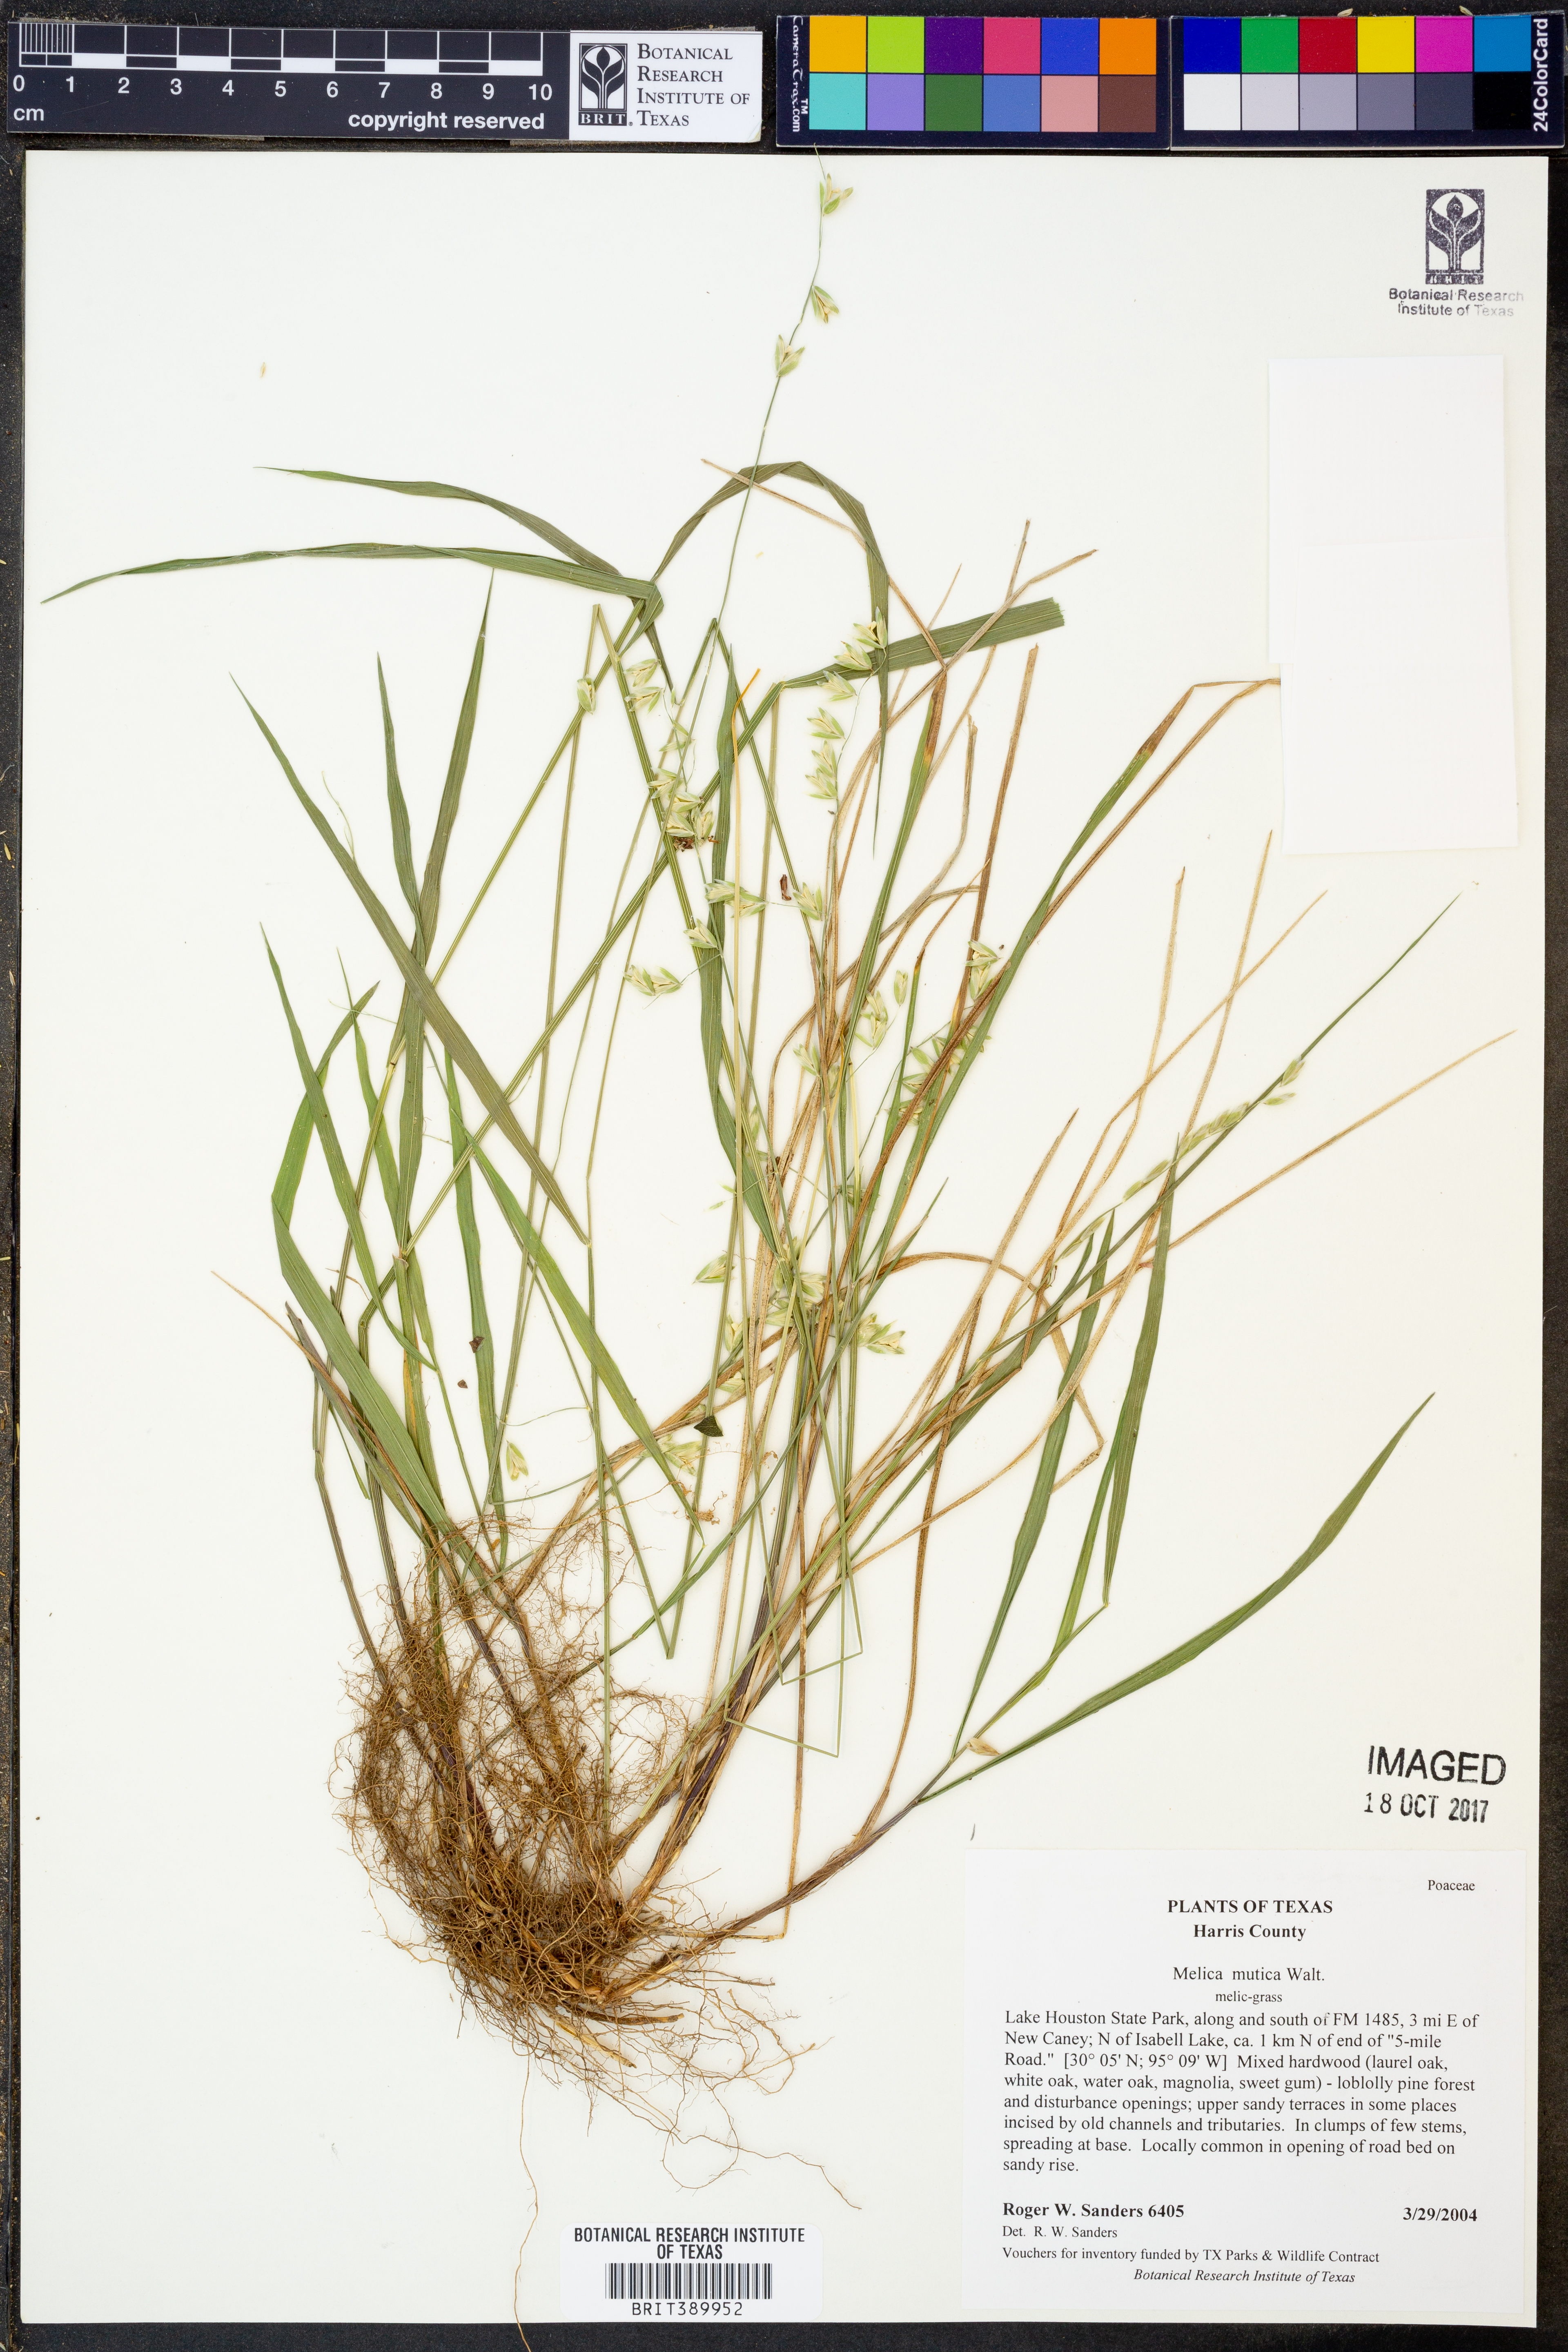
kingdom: Plantae
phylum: Tracheophyta
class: Liliopsida
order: Poales
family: Poaceae
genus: Melica
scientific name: Melica mutica
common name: Two-flower melic
